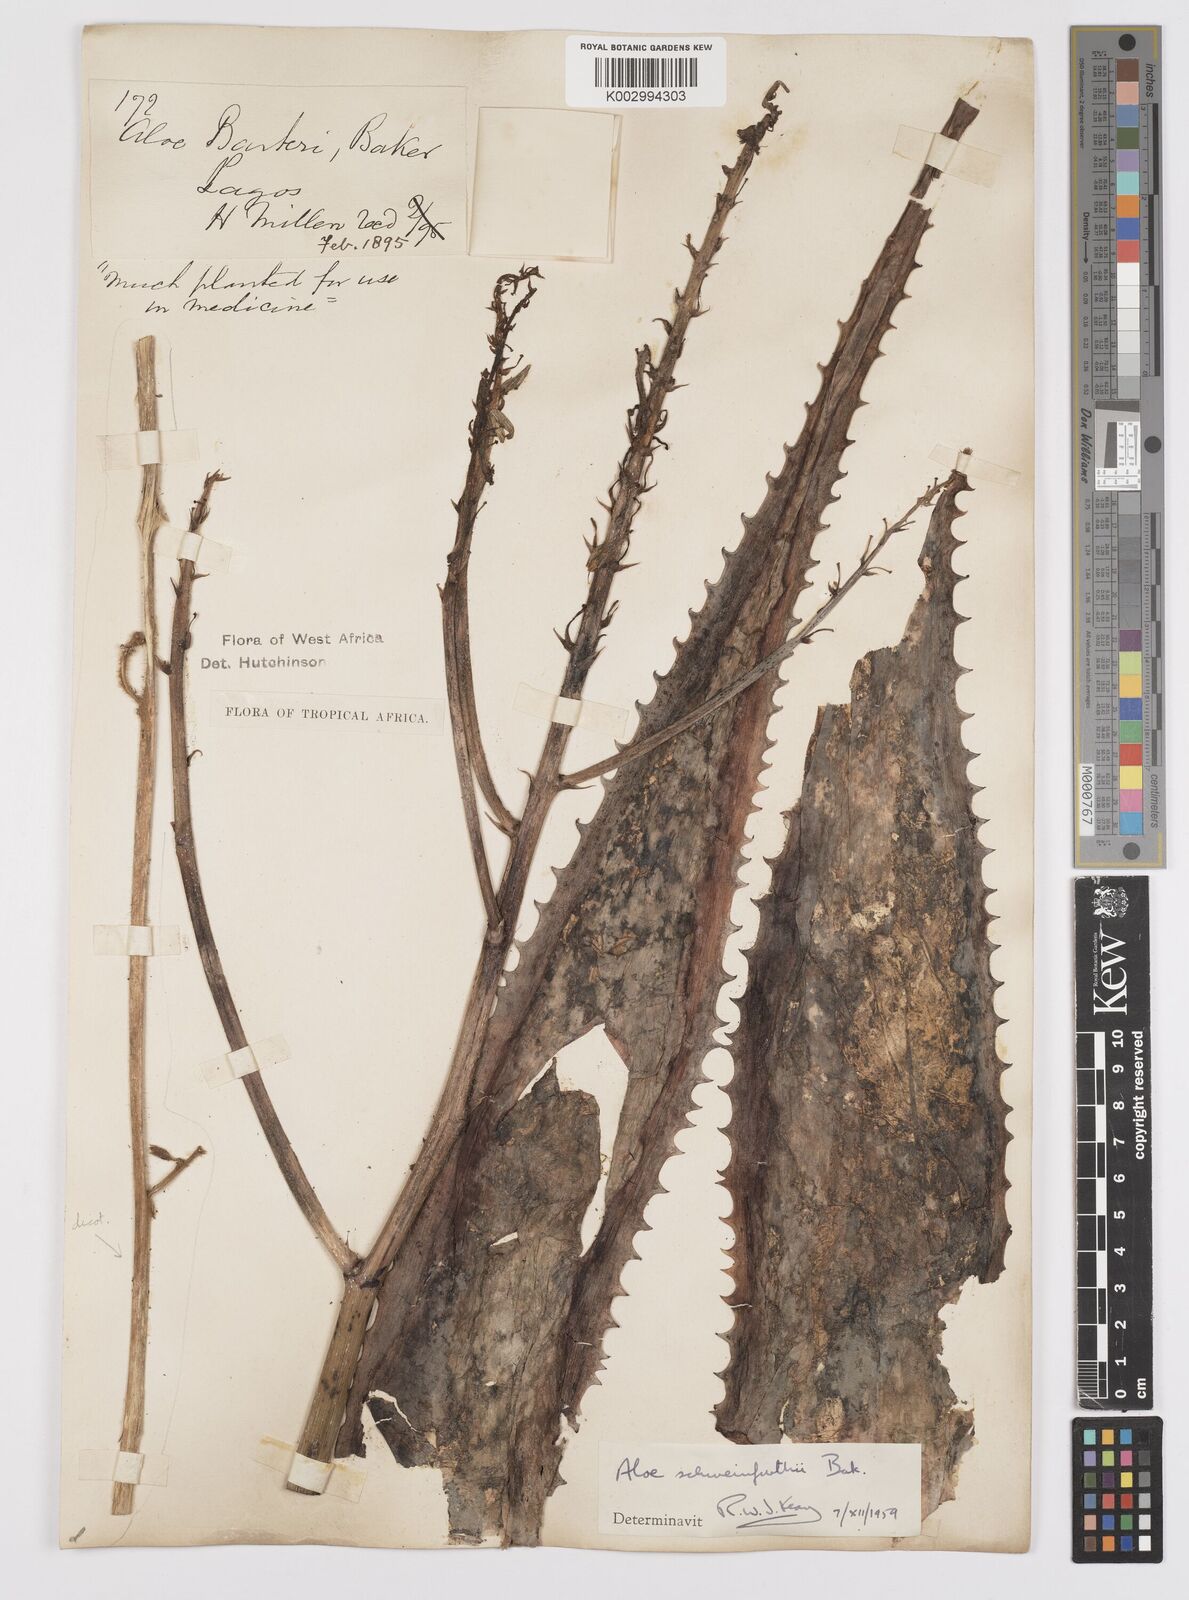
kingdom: Plantae
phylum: Tracheophyta
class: Liliopsida
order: Asparagales
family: Asphodelaceae
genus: Aloe
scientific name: Aloe schweinfurthii
